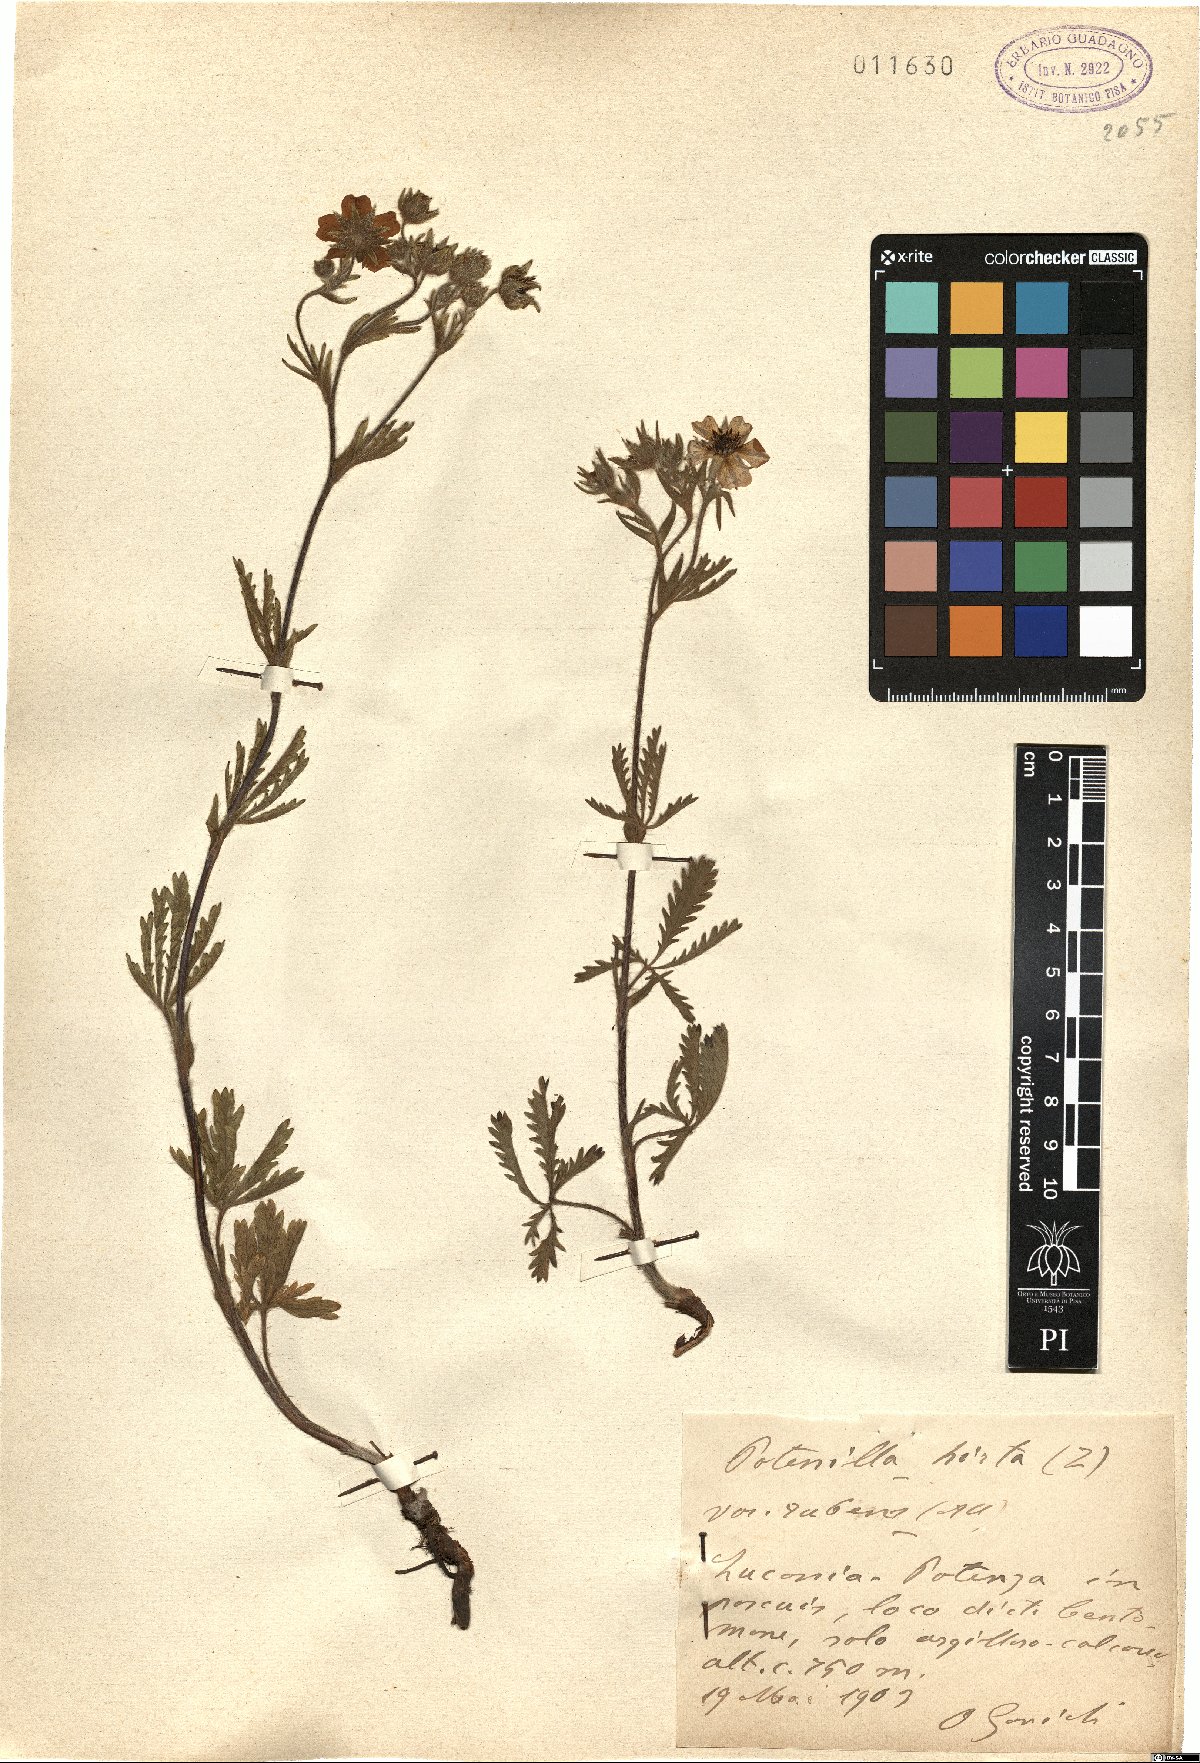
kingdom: Plantae
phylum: Tracheophyta
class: Magnoliopsida
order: Rosales
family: Rosaceae
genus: Potentilla
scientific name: Potentilla recta
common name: Sulphur cinquefoil
